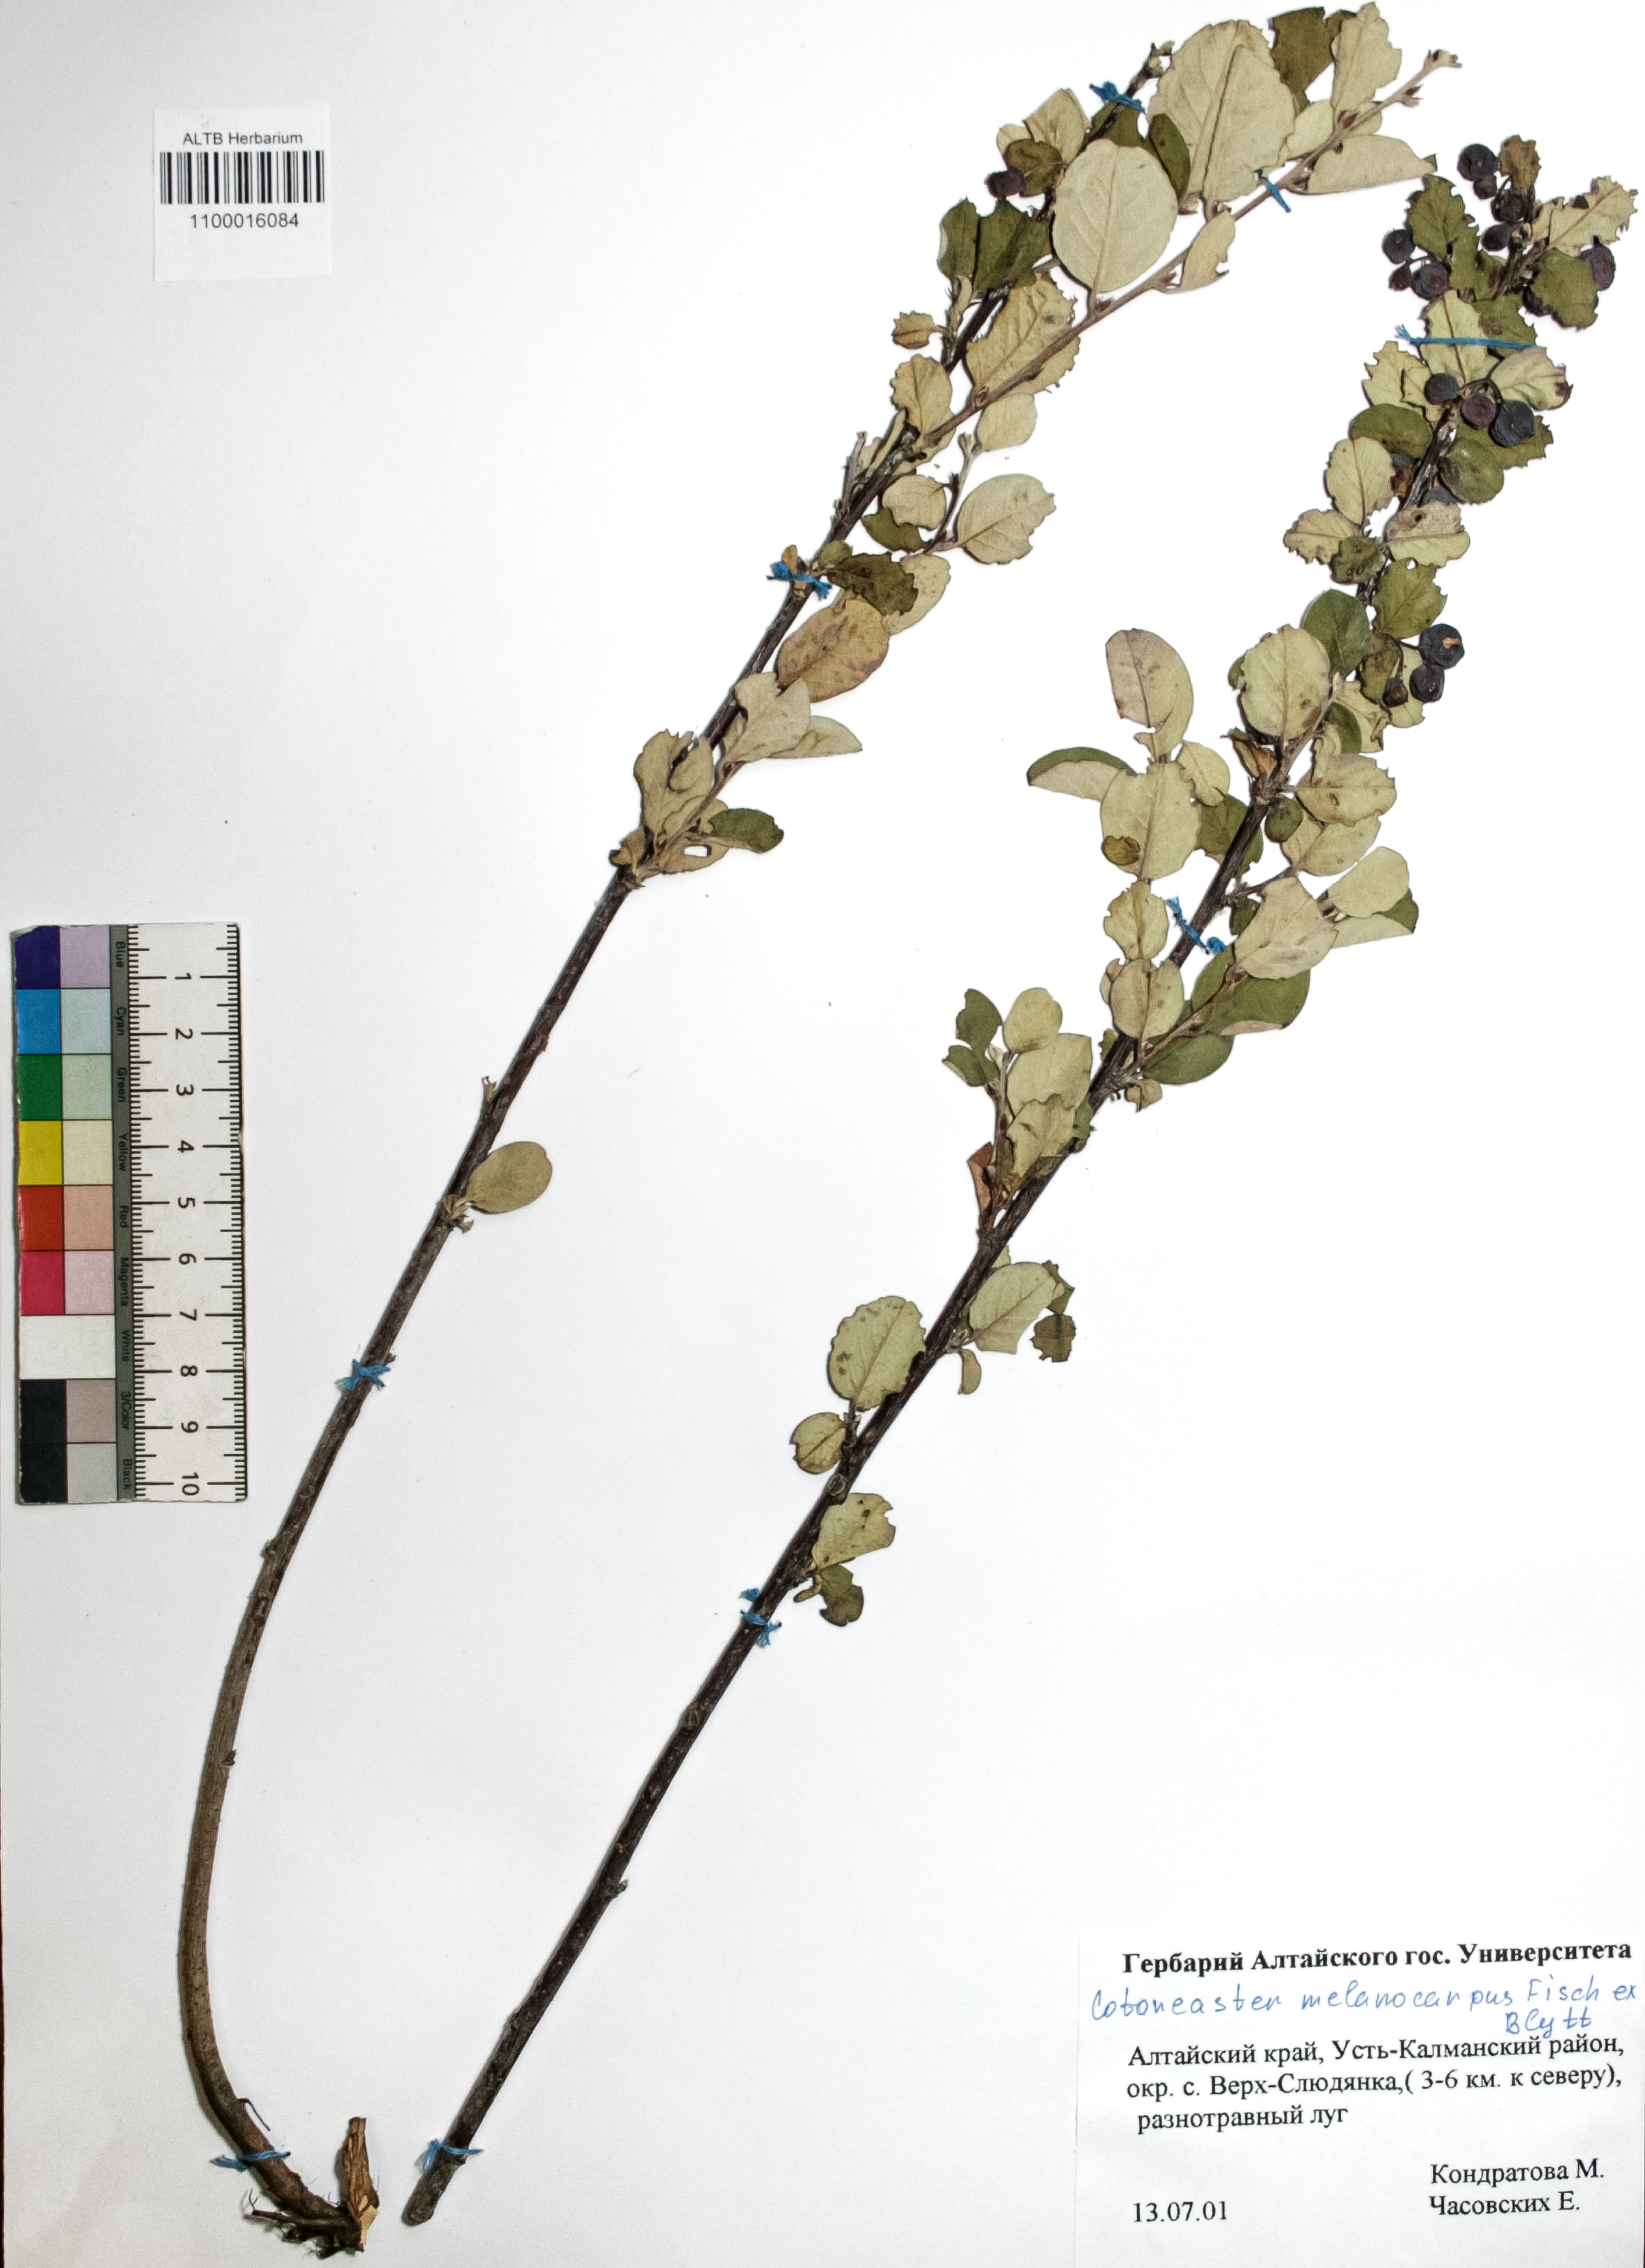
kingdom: Plantae
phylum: Tracheophyta
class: Magnoliopsida
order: Rosales
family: Rosaceae
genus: Cotoneaster
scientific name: Cotoneaster niger
